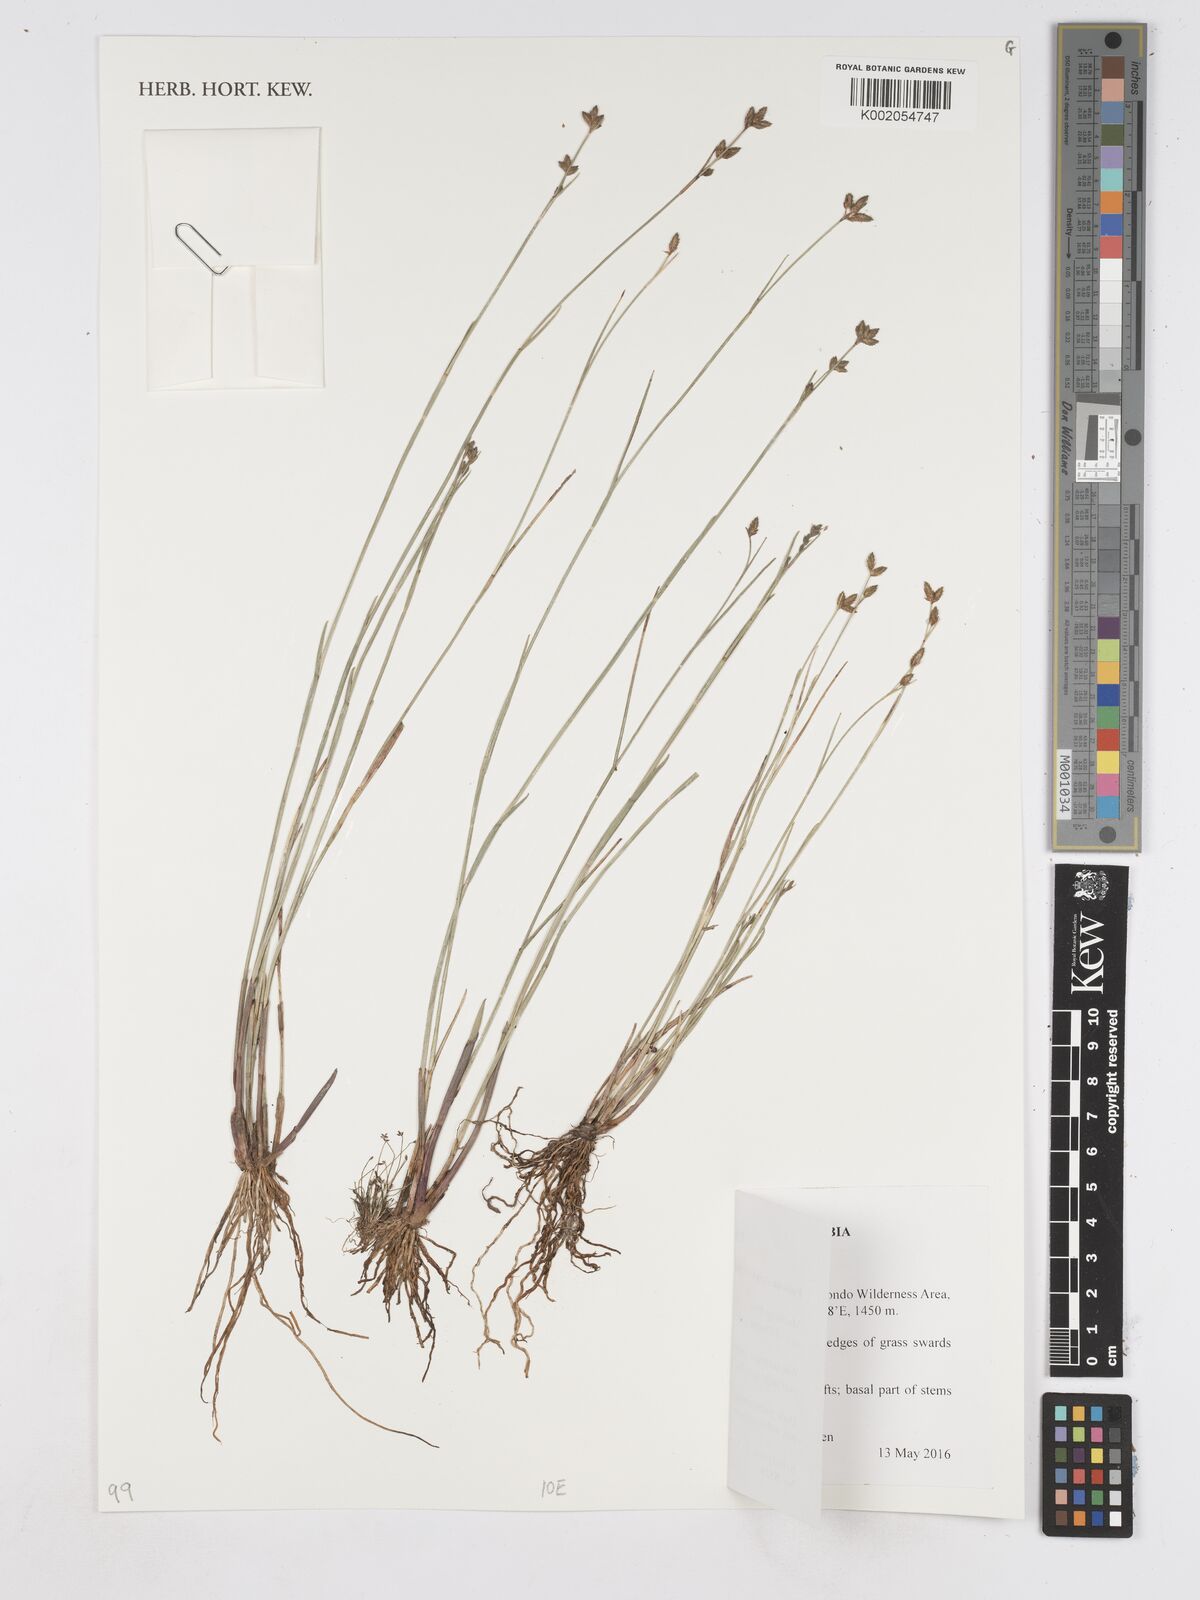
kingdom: Plantae
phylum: Tracheophyta
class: Liliopsida
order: Poales
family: Cyperaceae
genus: Fuirena
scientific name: Fuirena stricta
